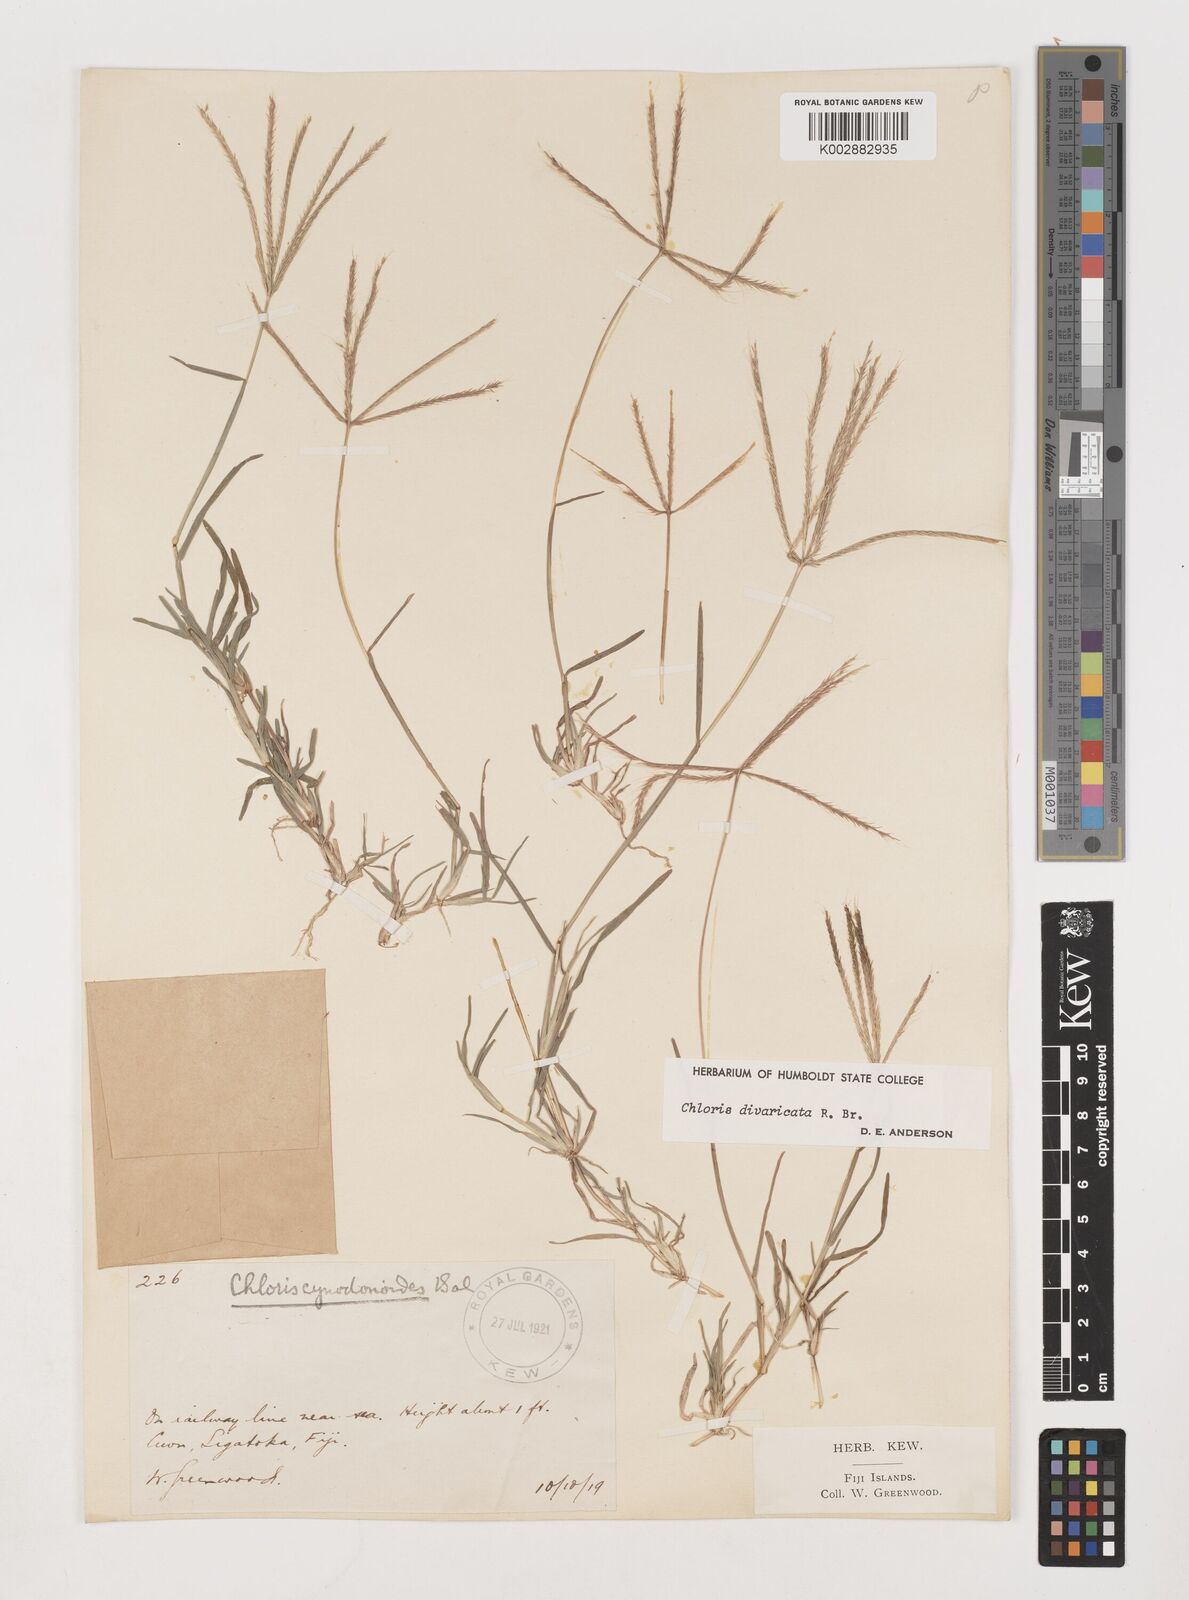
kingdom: Plantae
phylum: Tracheophyta
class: Liliopsida
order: Poales
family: Poaceae
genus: Chloris
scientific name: Chloris divaricata
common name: Spreading windmill grass
